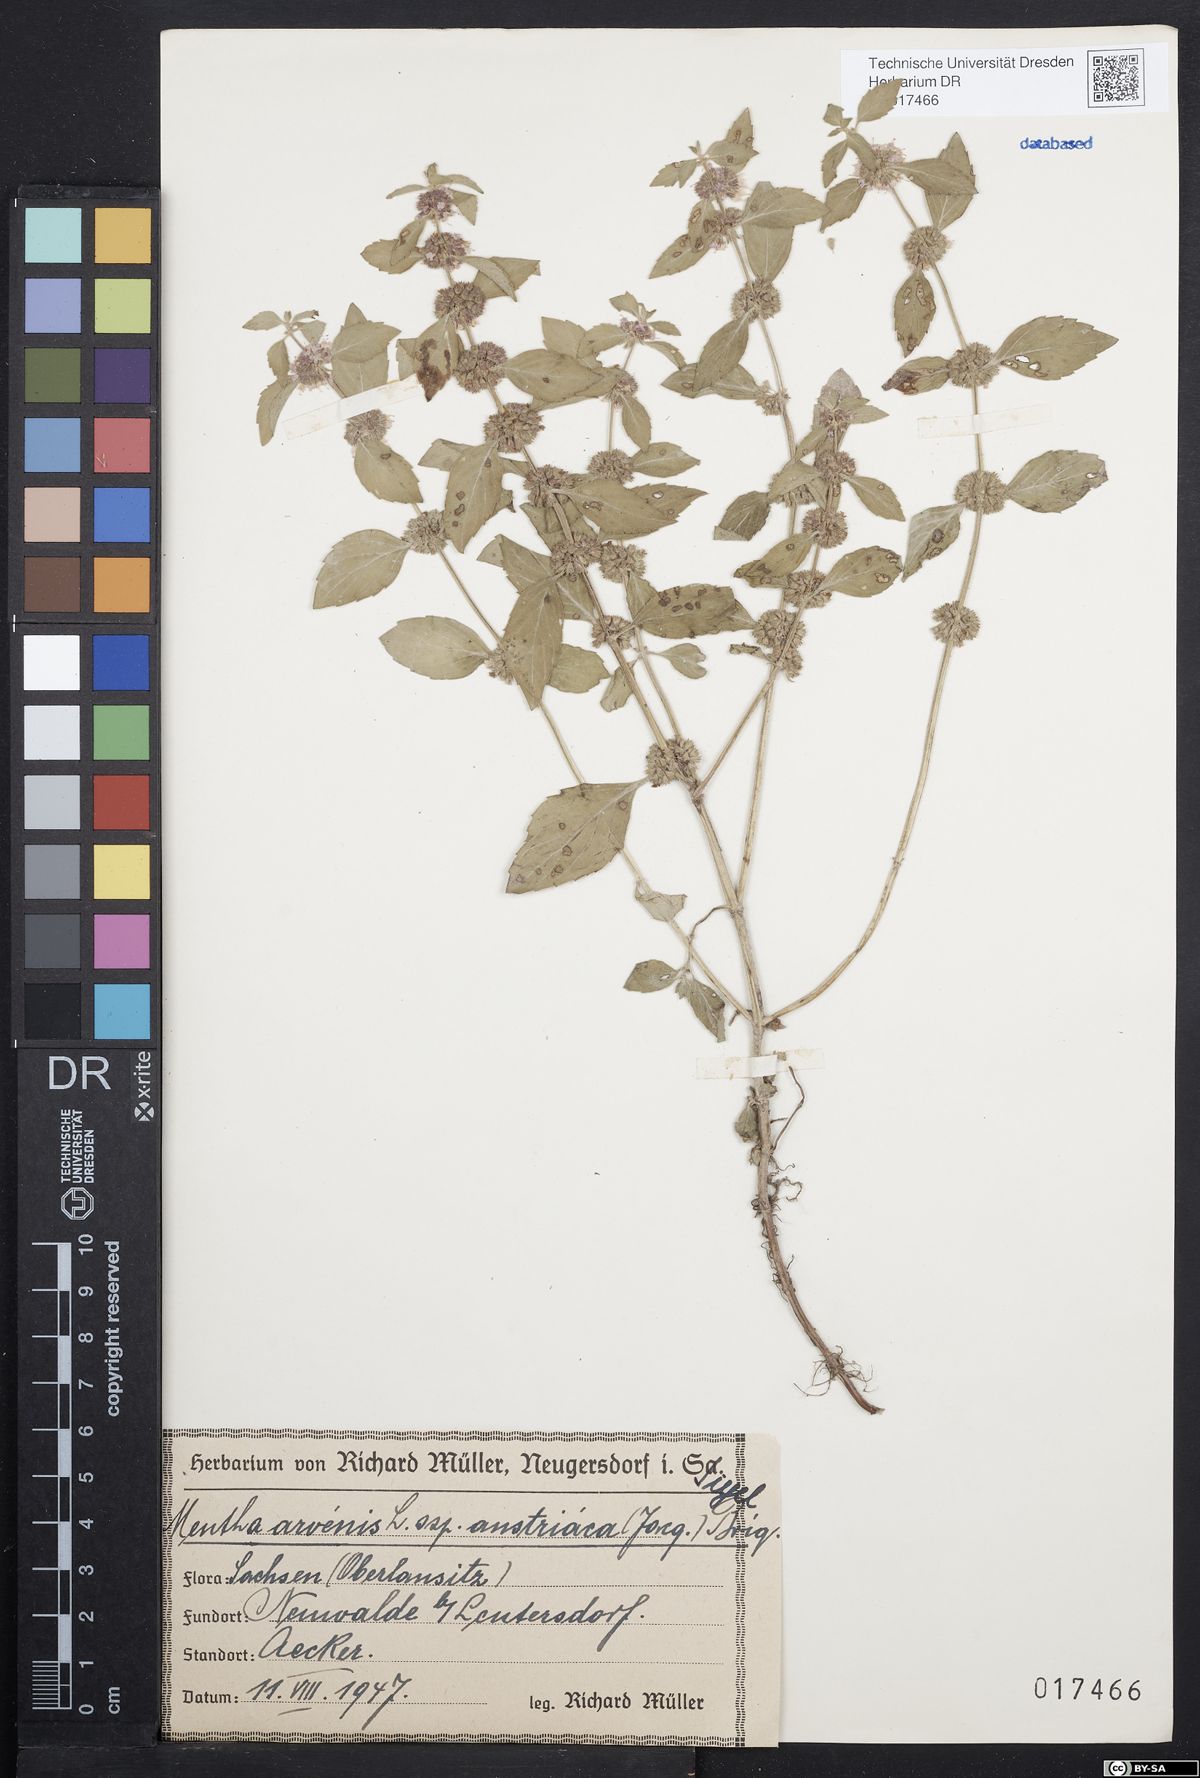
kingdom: Plantae
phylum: Tracheophyta
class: Magnoliopsida
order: Lamiales
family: Lamiaceae
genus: Mentha
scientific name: Mentha arvensis
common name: Corn mint
